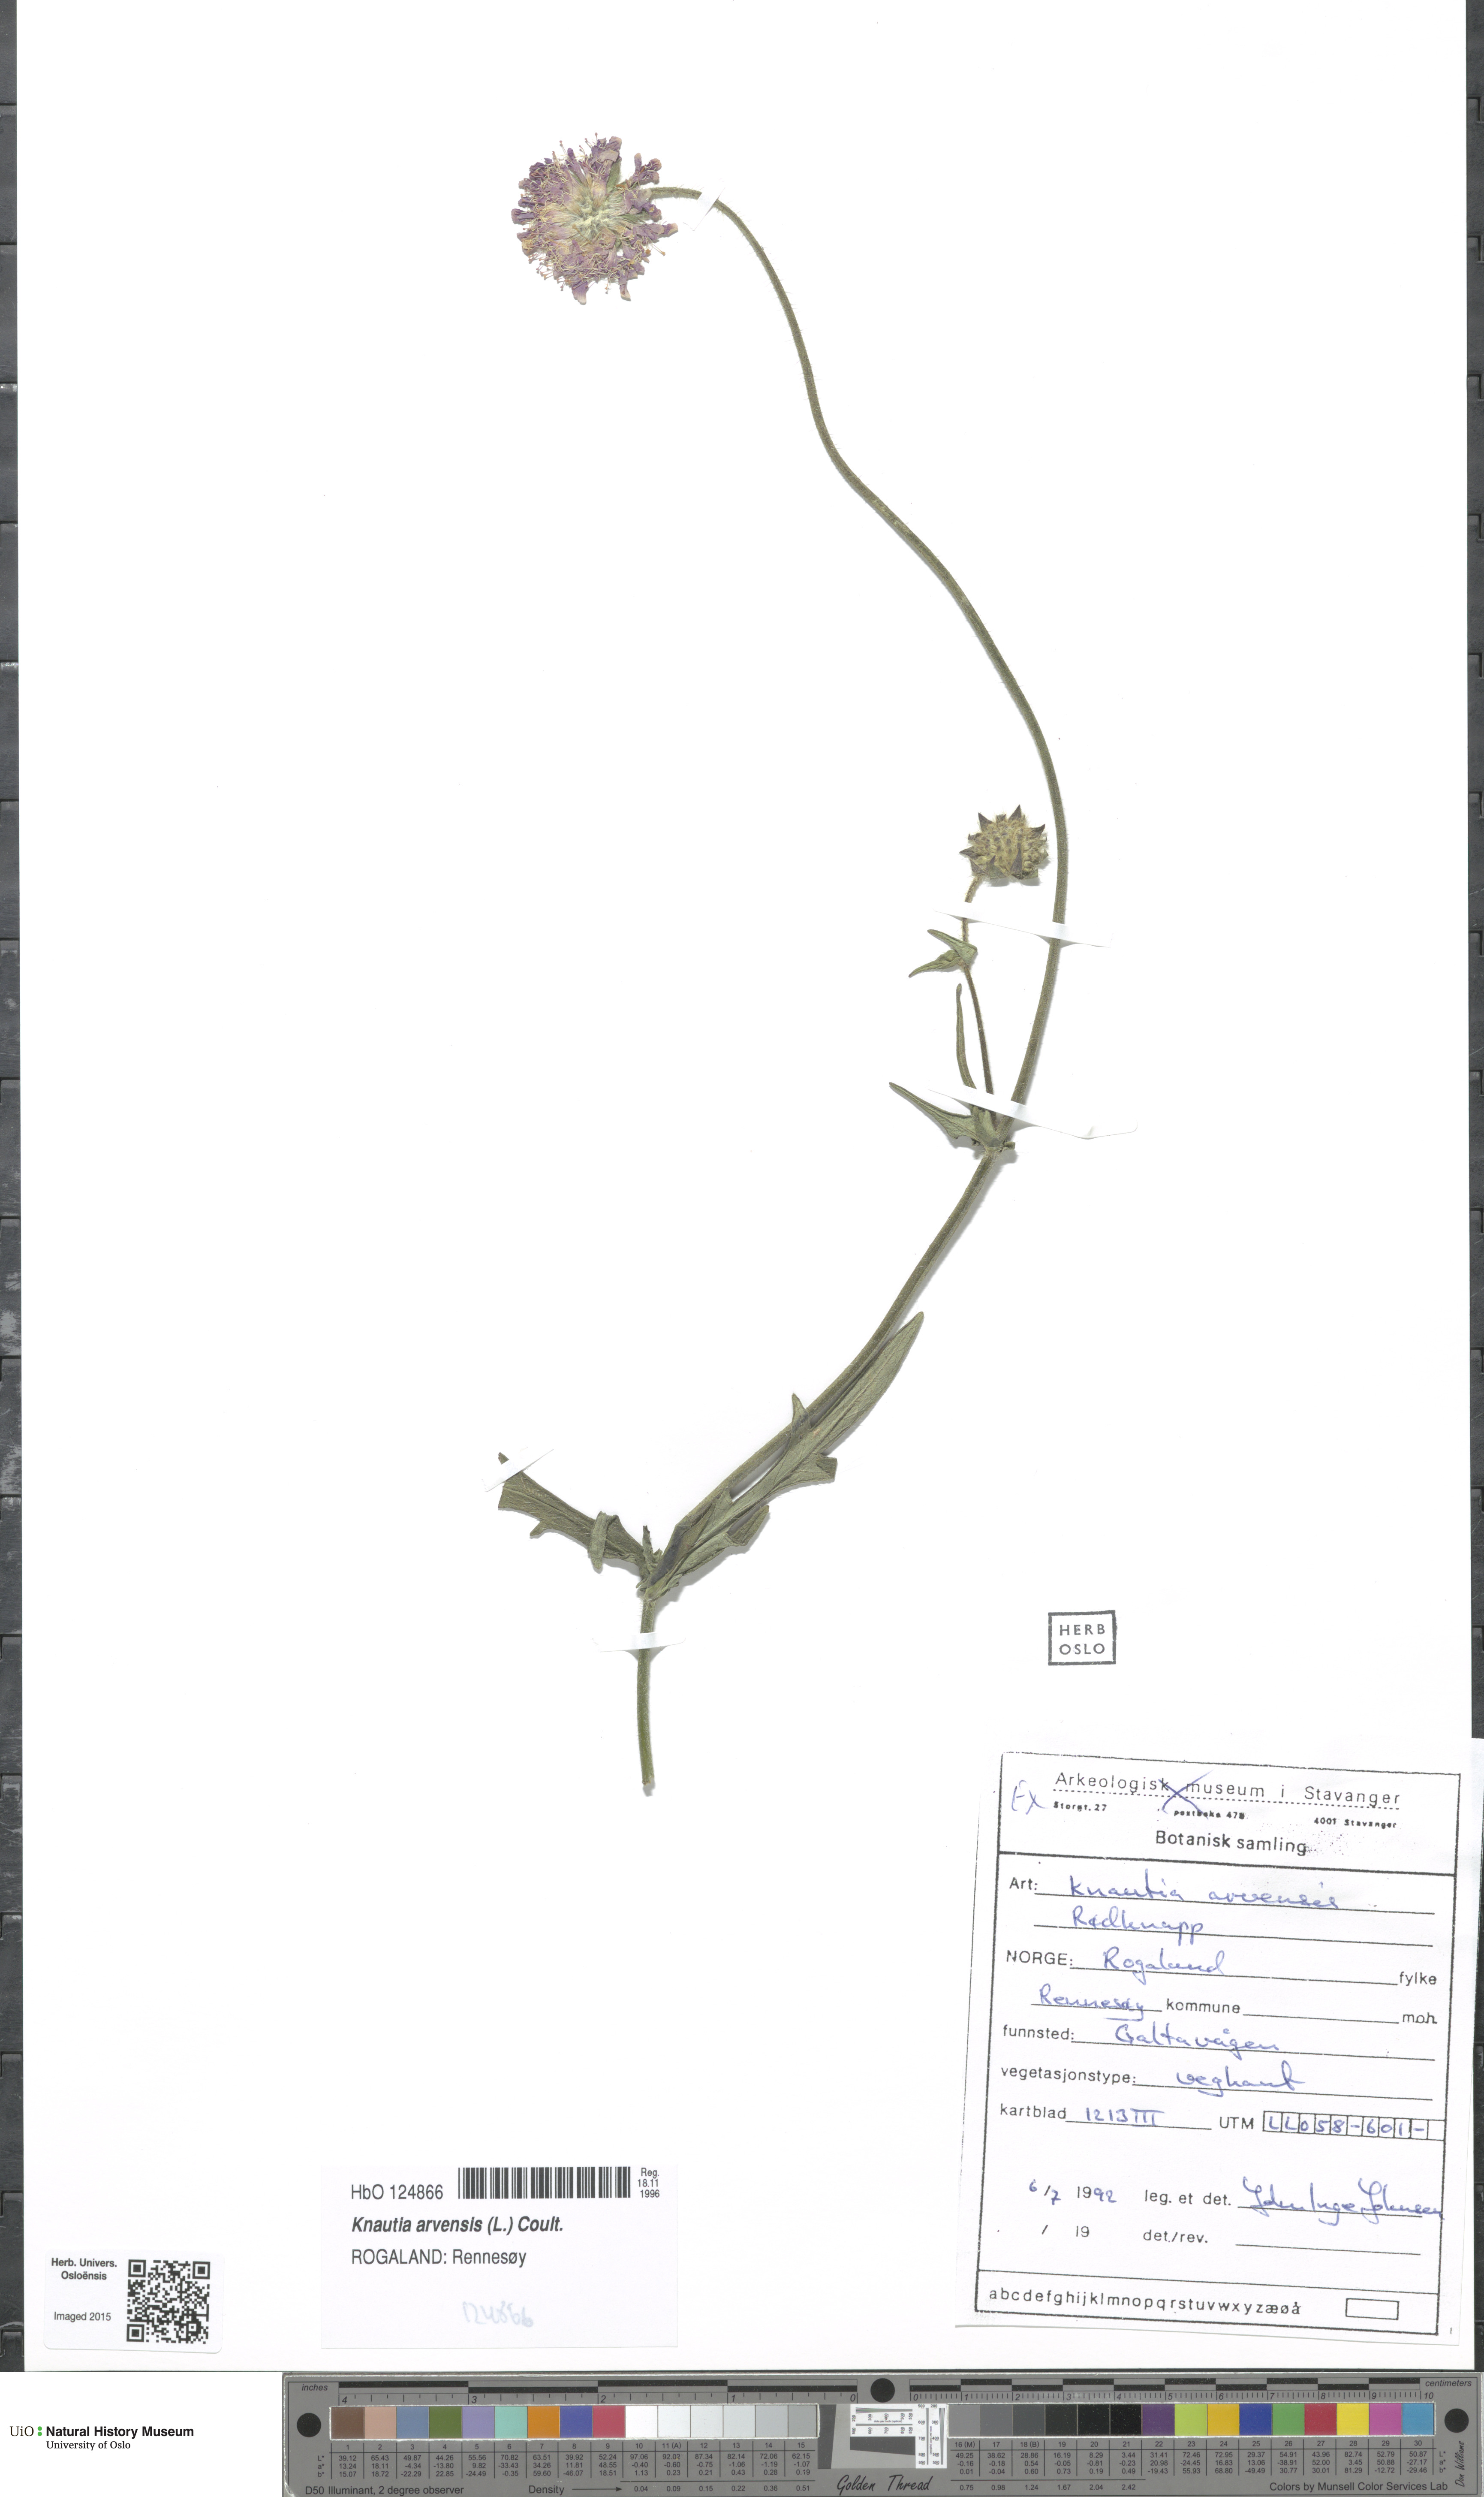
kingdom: Plantae
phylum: Tracheophyta
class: Magnoliopsida
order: Dipsacales
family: Caprifoliaceae
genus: Knautia
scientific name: Knautia arvensis
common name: Field scabiosa
